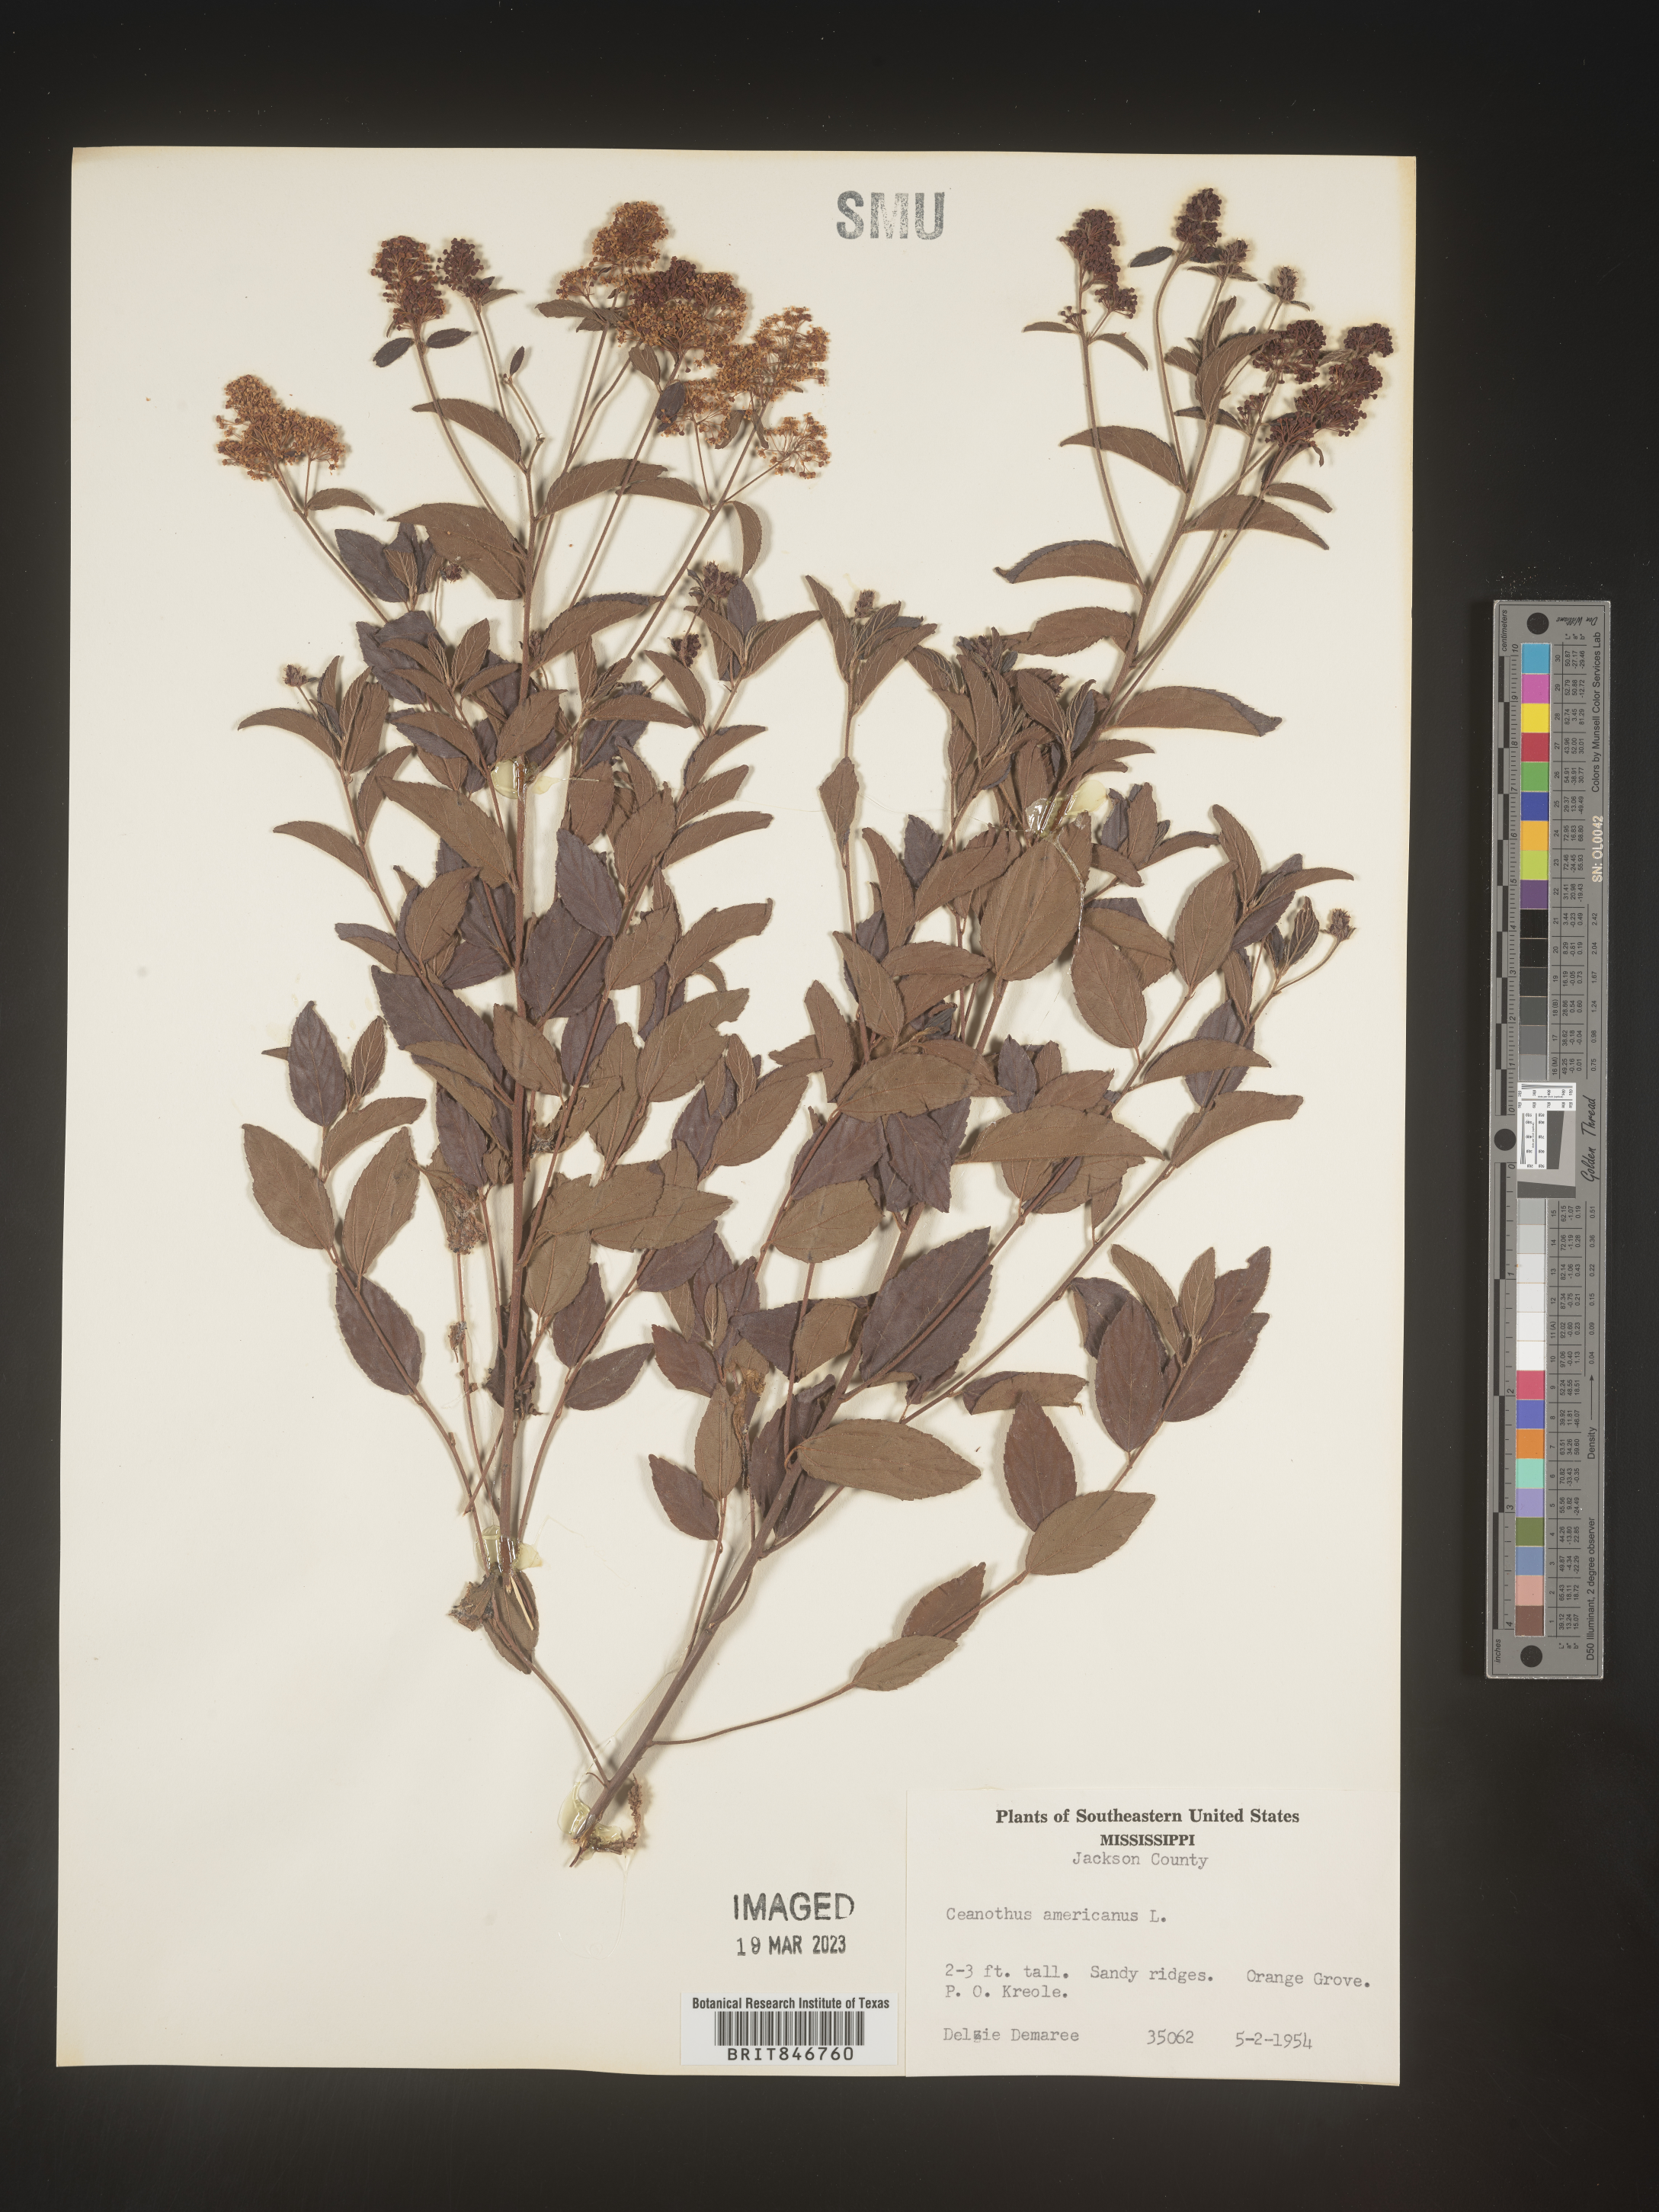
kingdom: Plantae
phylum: Tracheophyta
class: Magnoliopsida
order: Rosales
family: Rhamnaceae
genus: Ceanothus
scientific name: Ceanothus americanus
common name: Redroot
